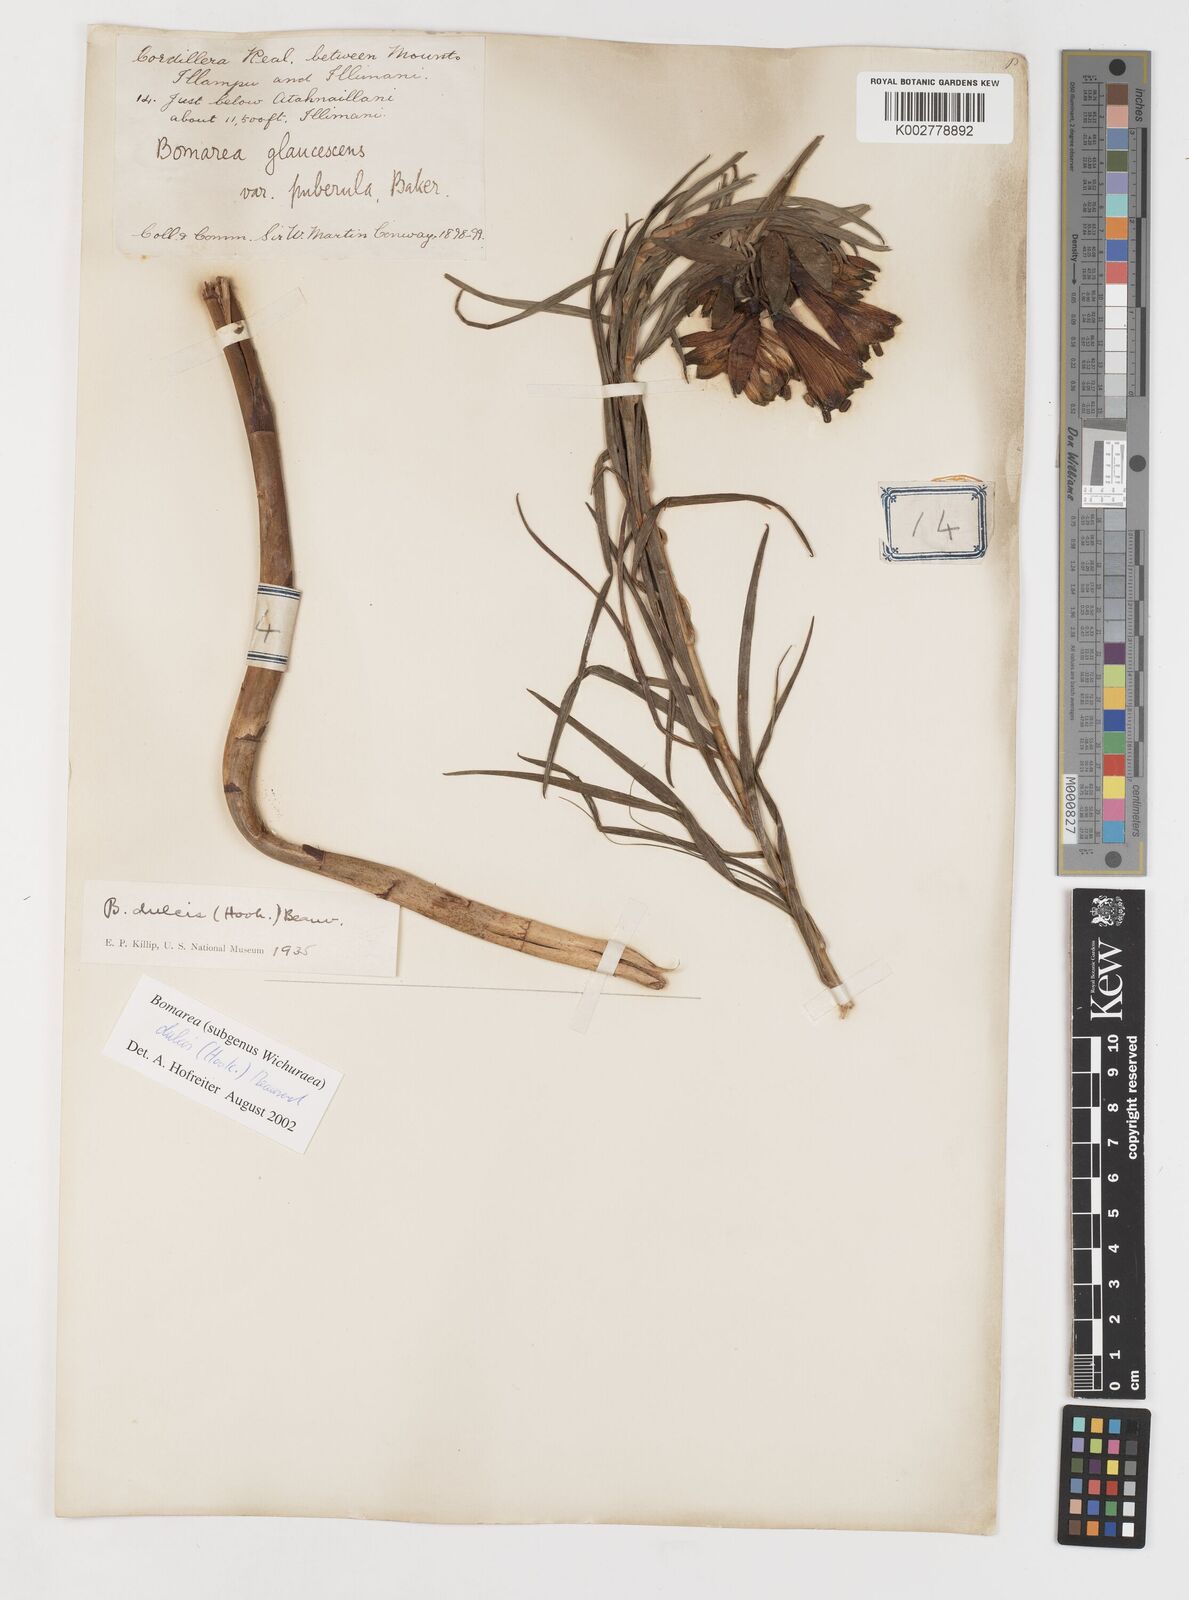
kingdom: Plantae
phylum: Tracheophyta
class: Liliopsida
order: Liliales
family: Alstroemeriaceae
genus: Bomarea
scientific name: Bomarea dulcis
